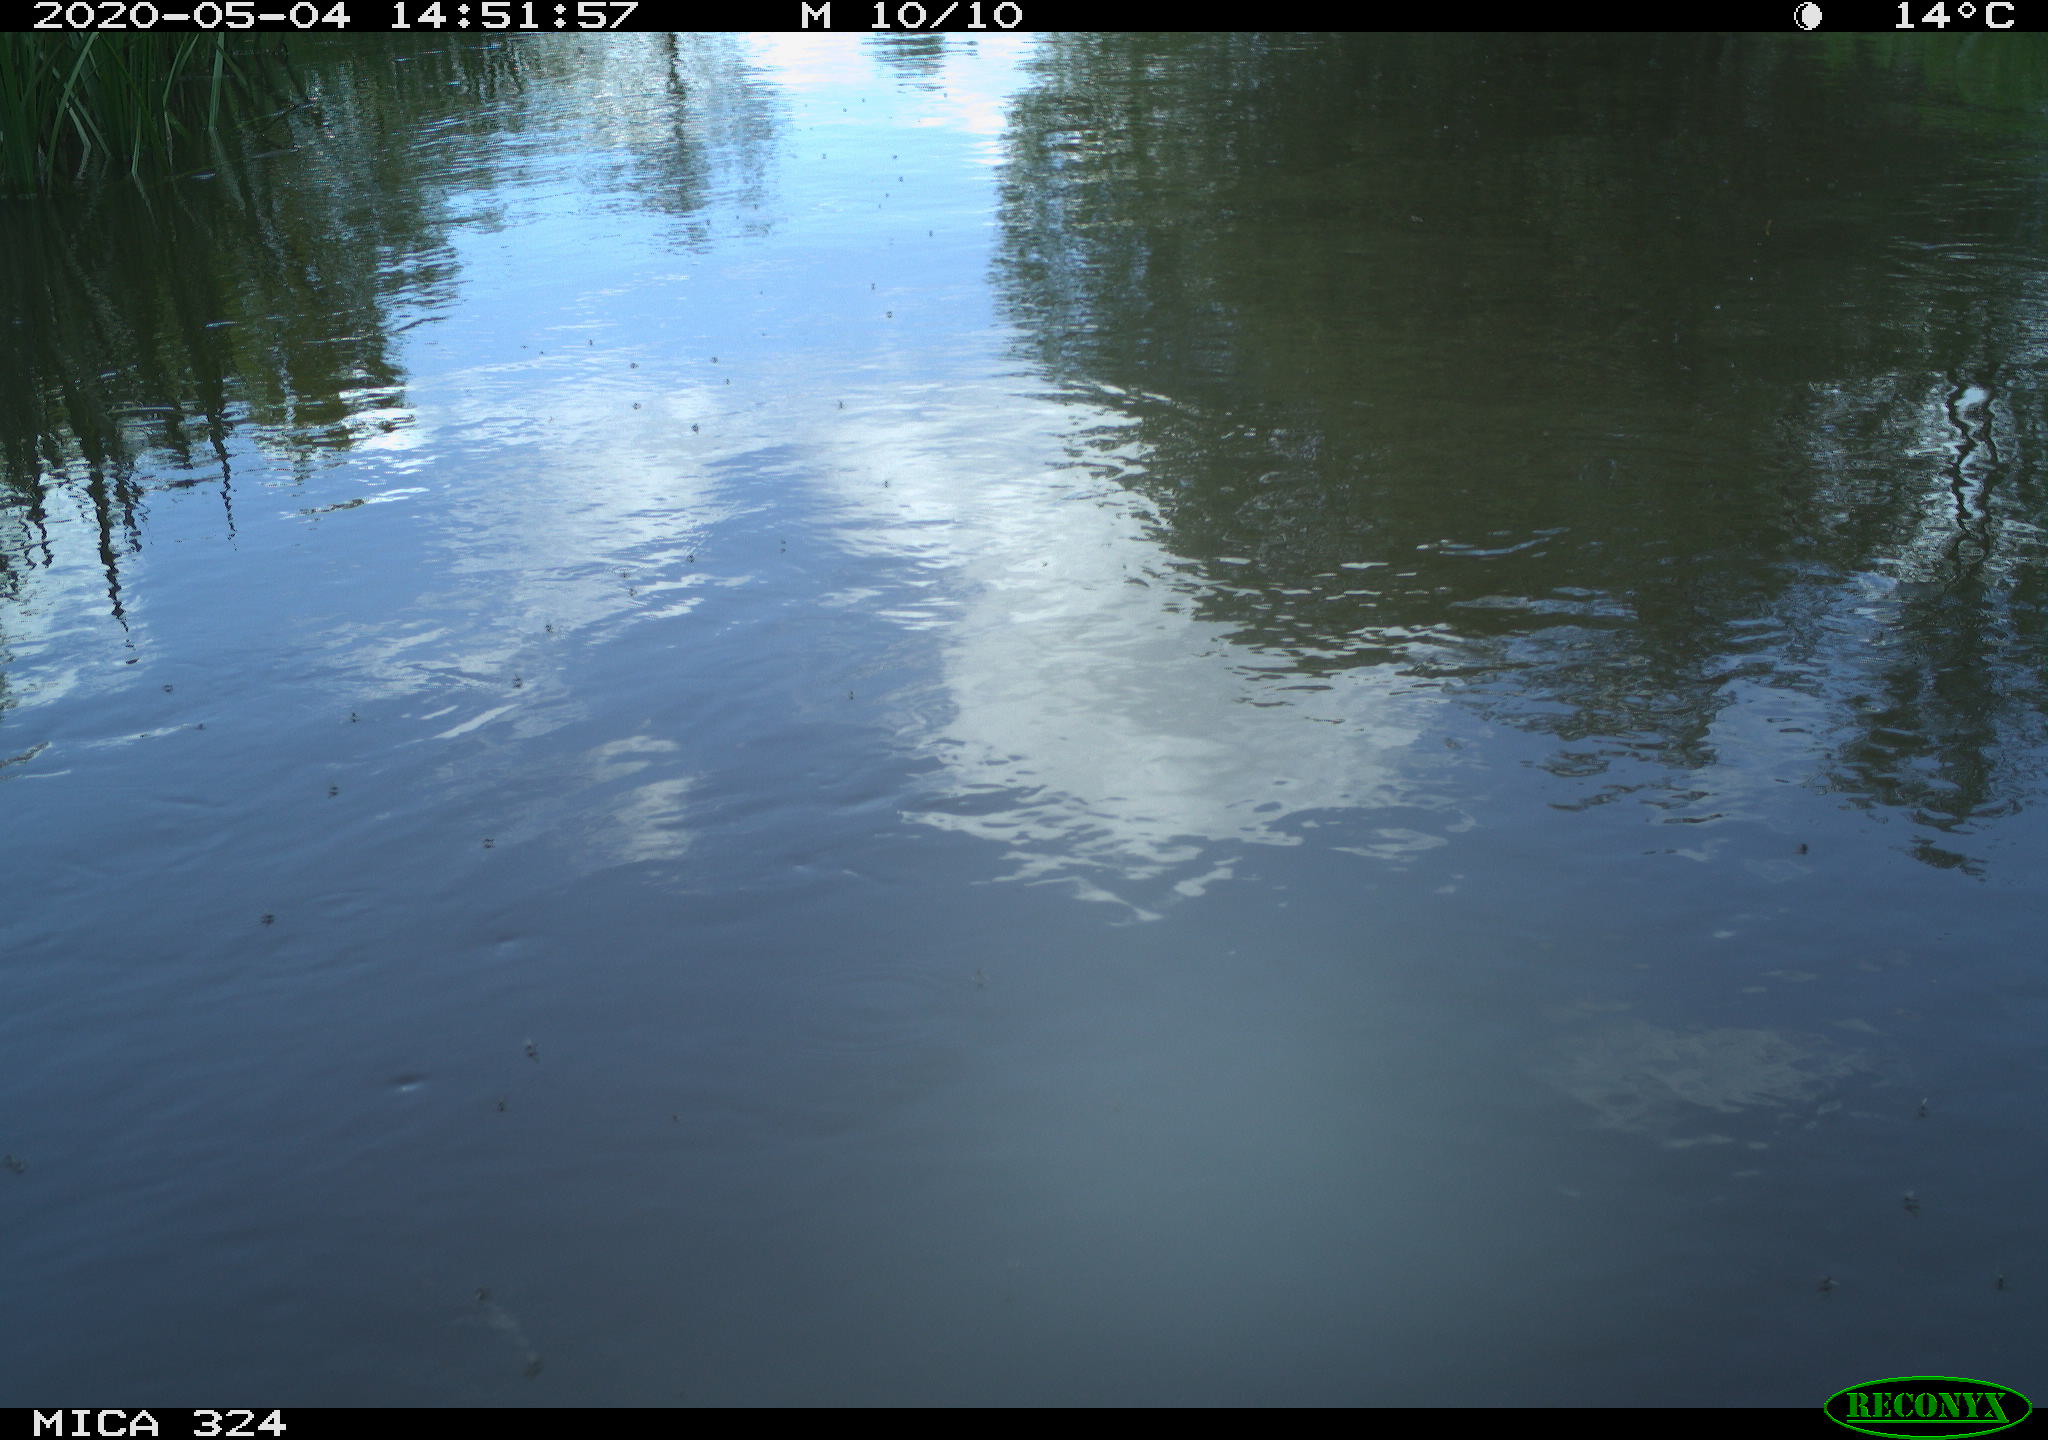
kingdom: Animalia
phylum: Chordata
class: Aves
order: Gruiformes
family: Rallidae
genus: Gallinula
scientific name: Gallinula chloropus
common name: Common moorhen
